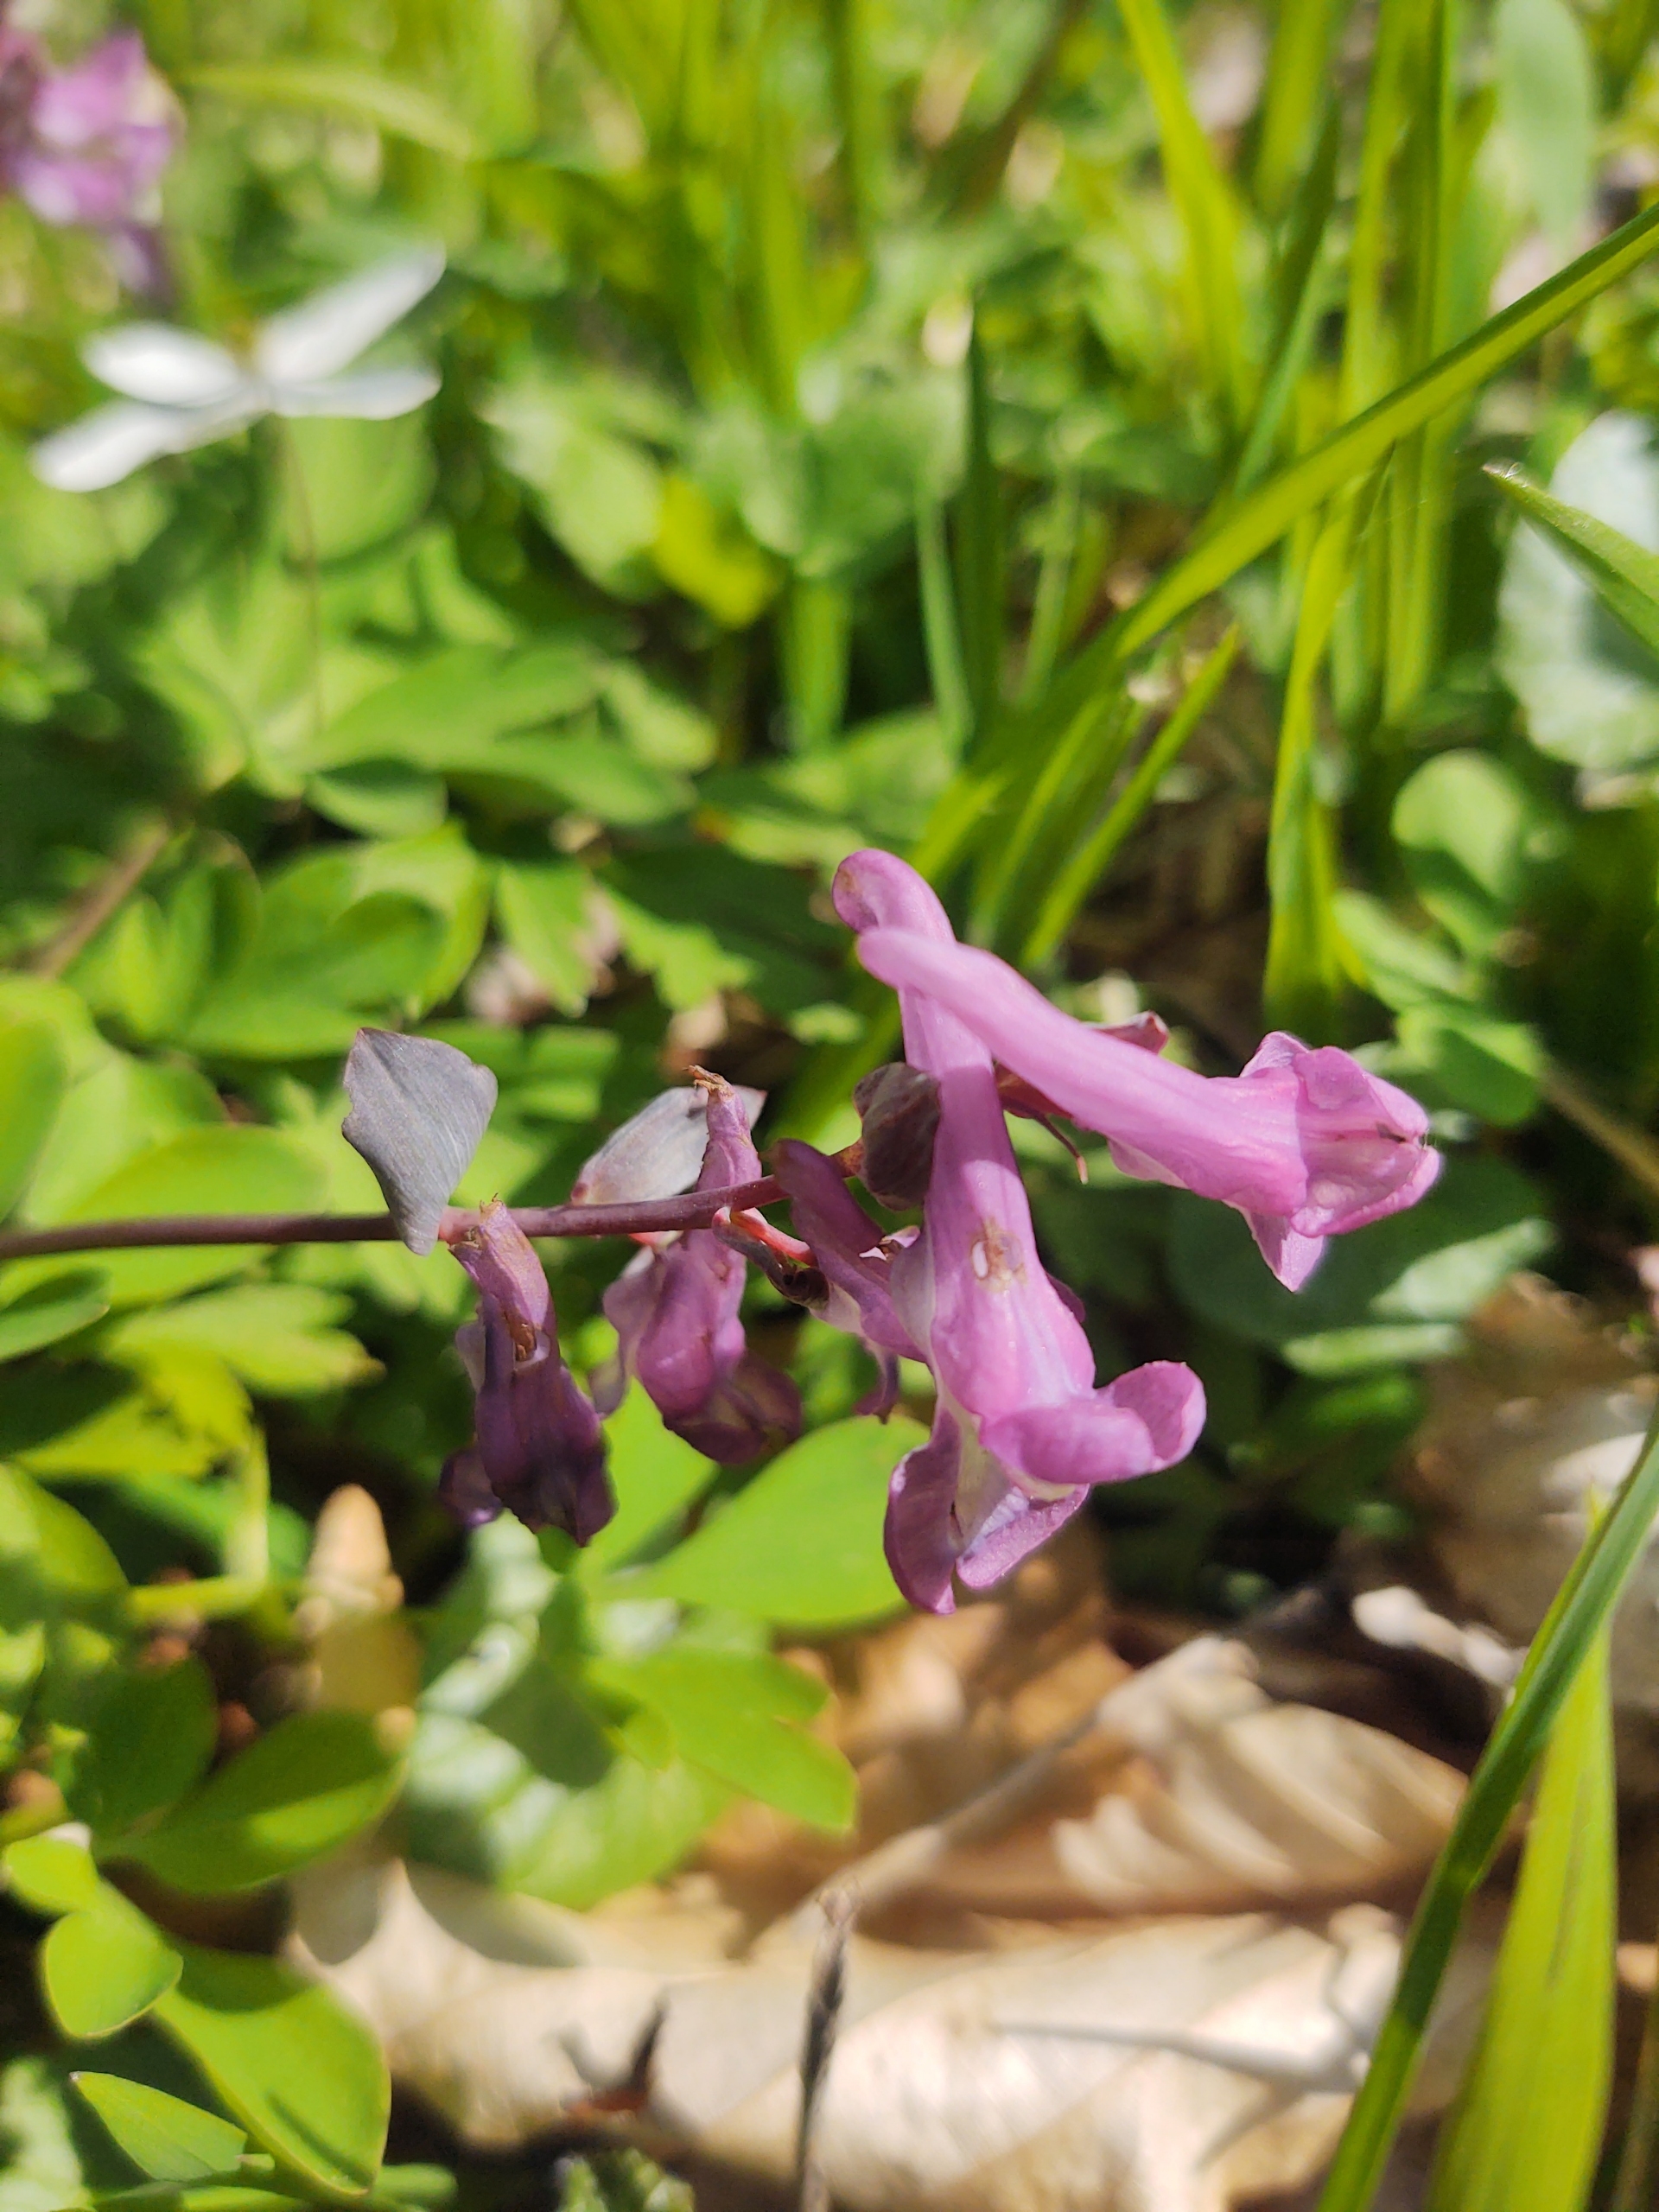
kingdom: Plantae
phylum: Tracheophyta
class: Magnoliopsida
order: Ranunculales
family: Papaveraceae
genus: Corydalis
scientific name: Corydalis cava
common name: Hulrodet lærkespore
